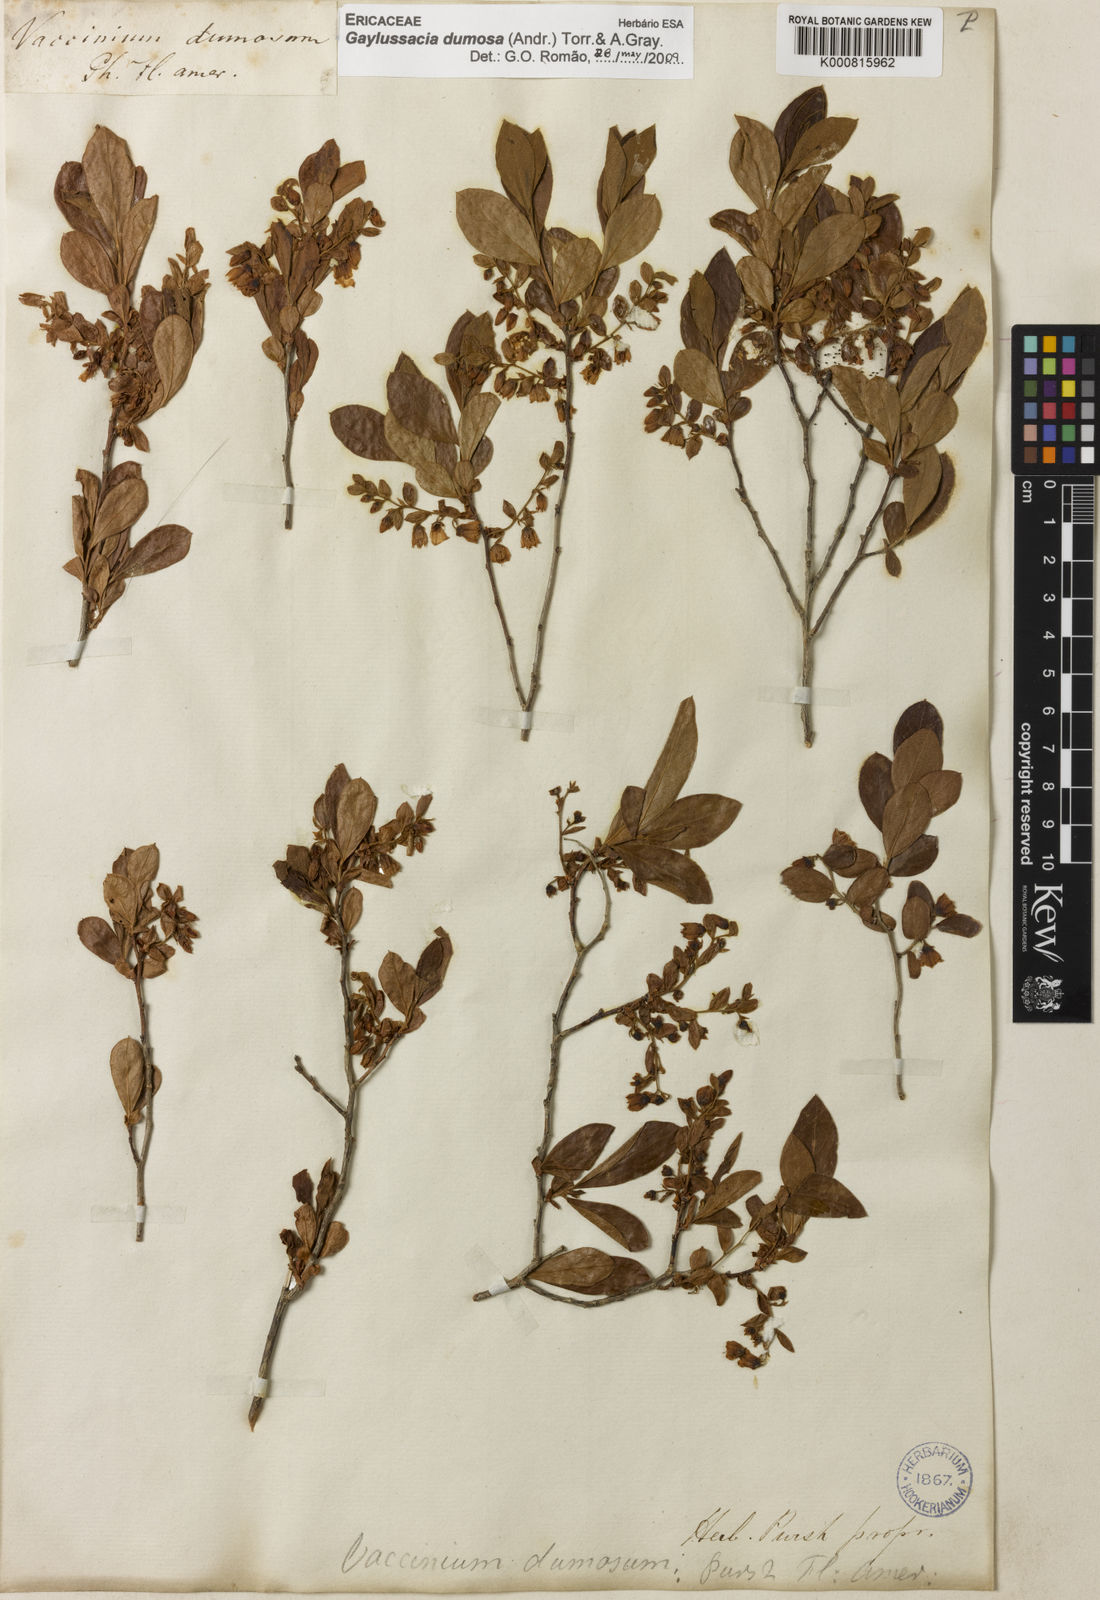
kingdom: Plantae
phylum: Tracheophyta
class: Magnoliopsida
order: Ericales
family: Ericaceae
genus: Gaylussacia
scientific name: Gaylussacia dumosa
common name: Dwarf huckleberry
